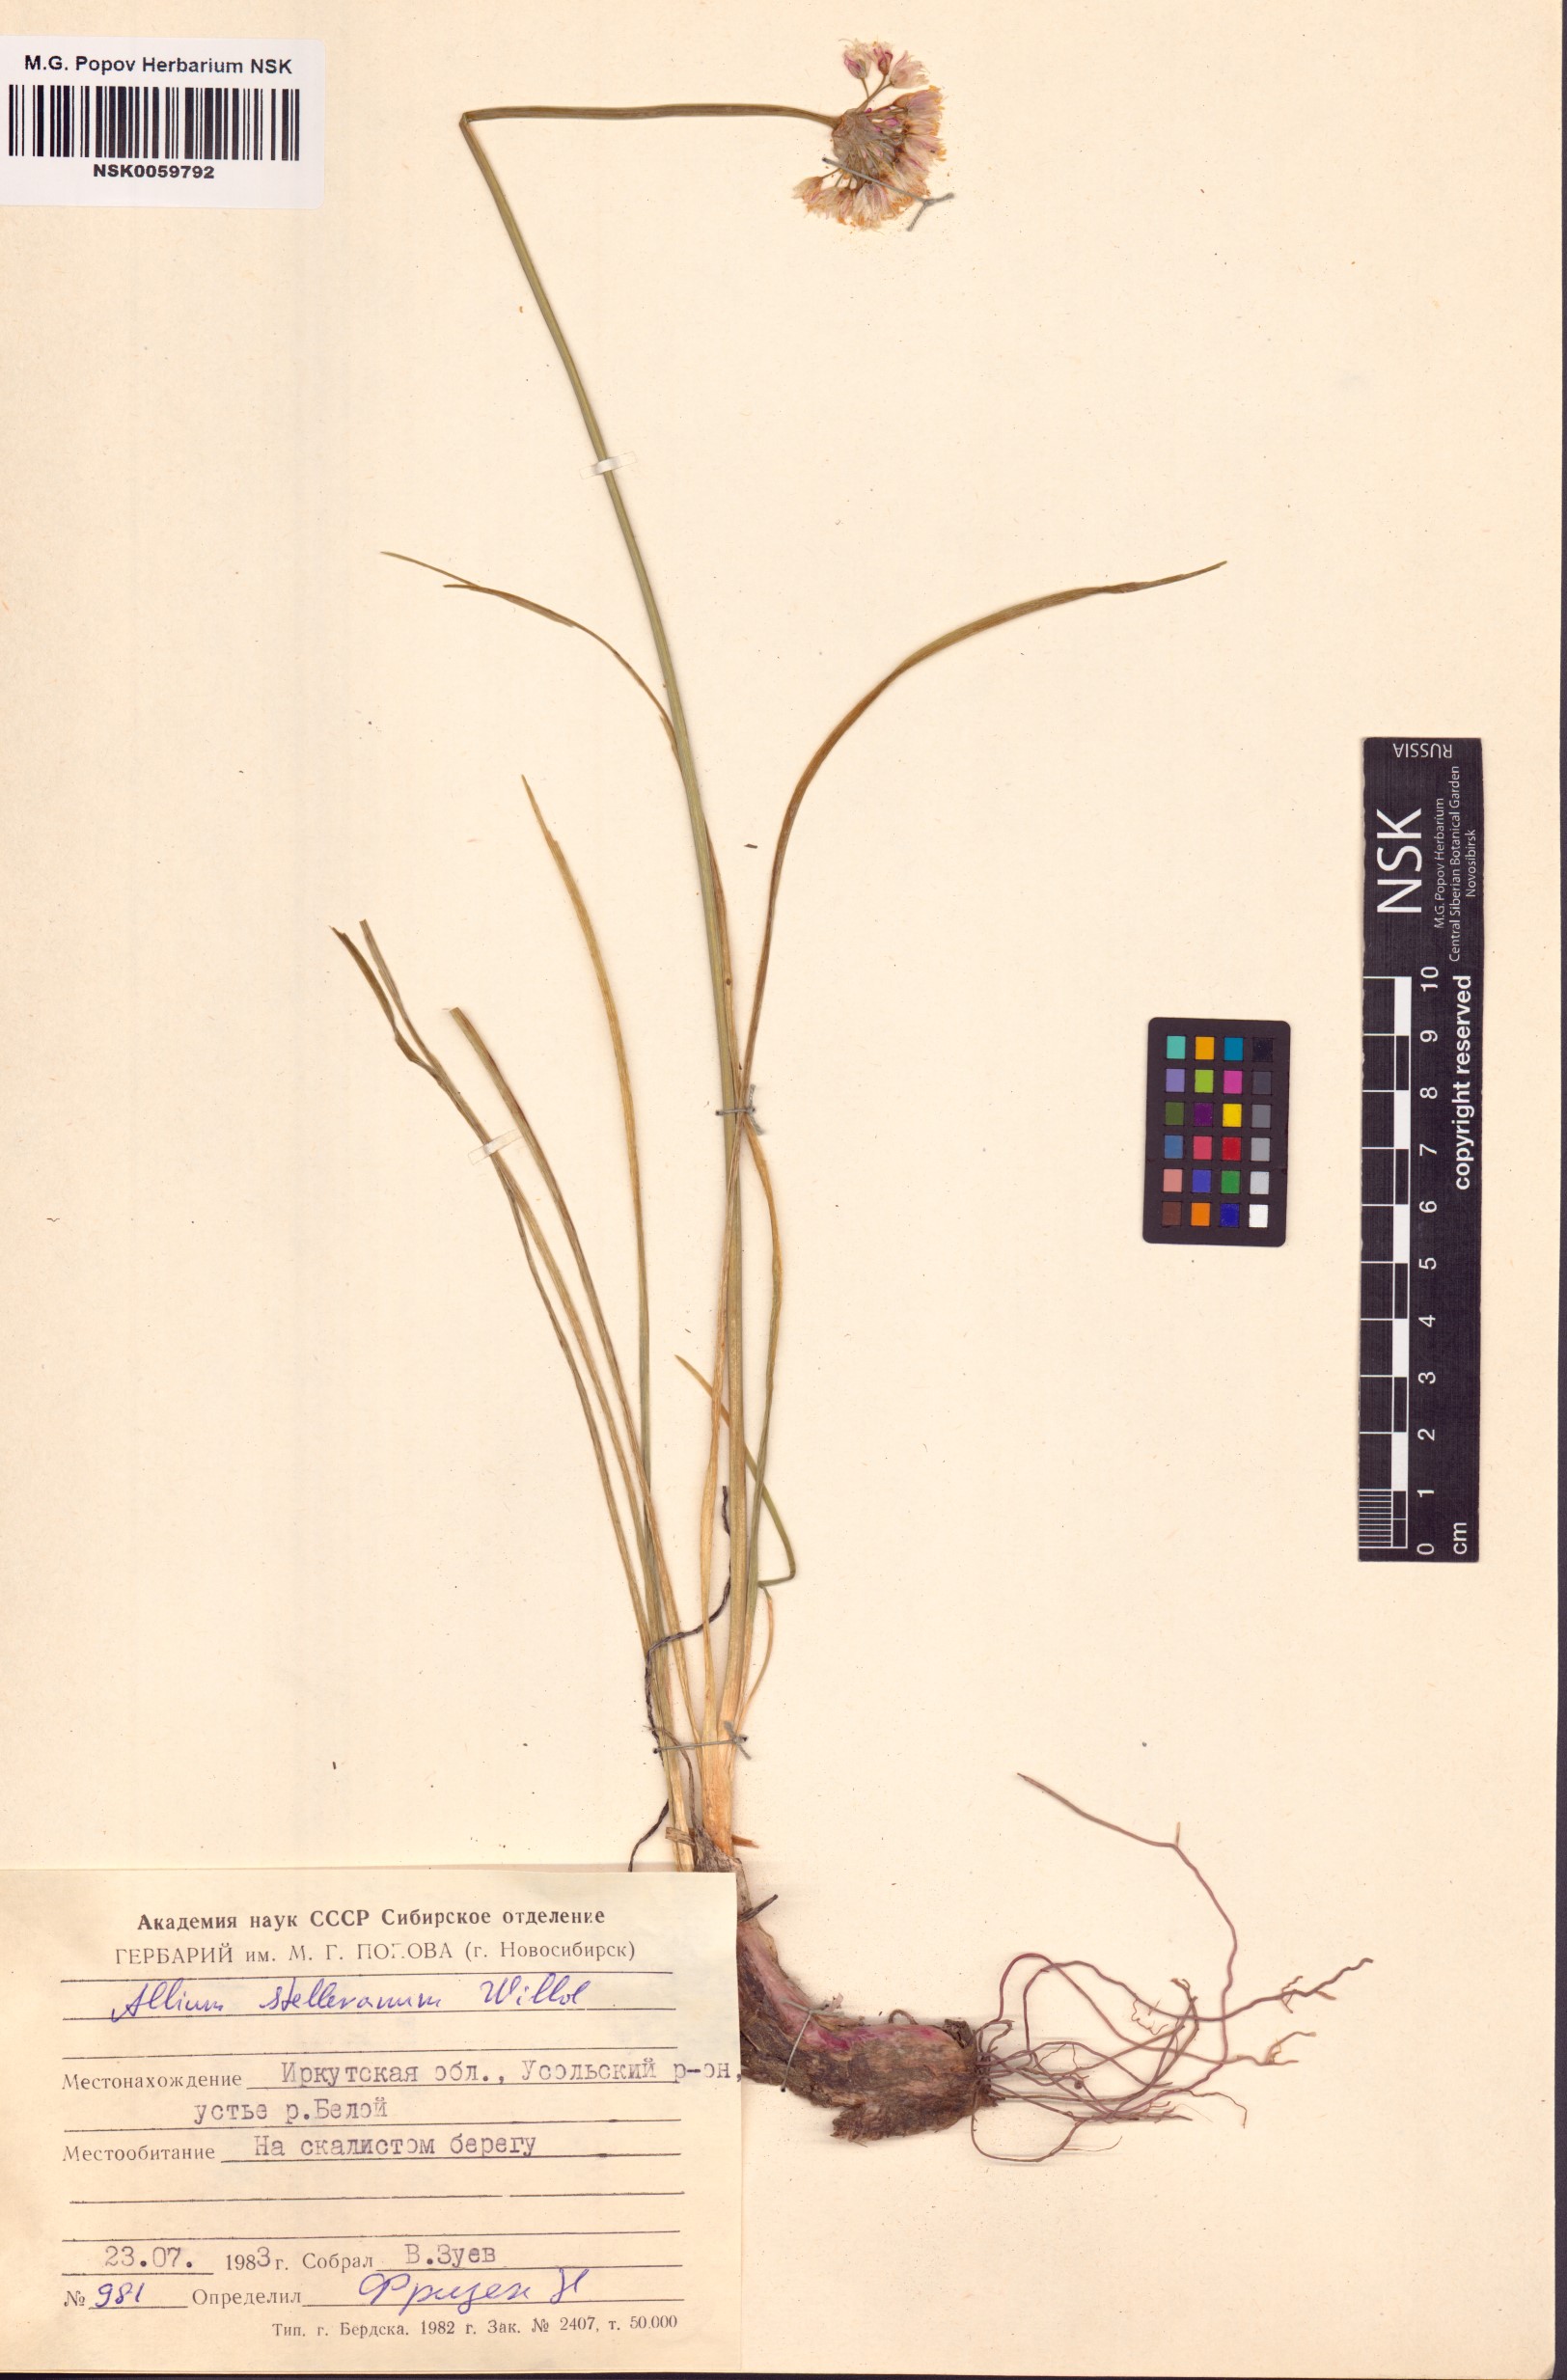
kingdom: Plantae
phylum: Tracheophyta
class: Liliopsida
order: Asparagales
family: Amaryllidaceae
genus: Allium
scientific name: Allium stellerianum
